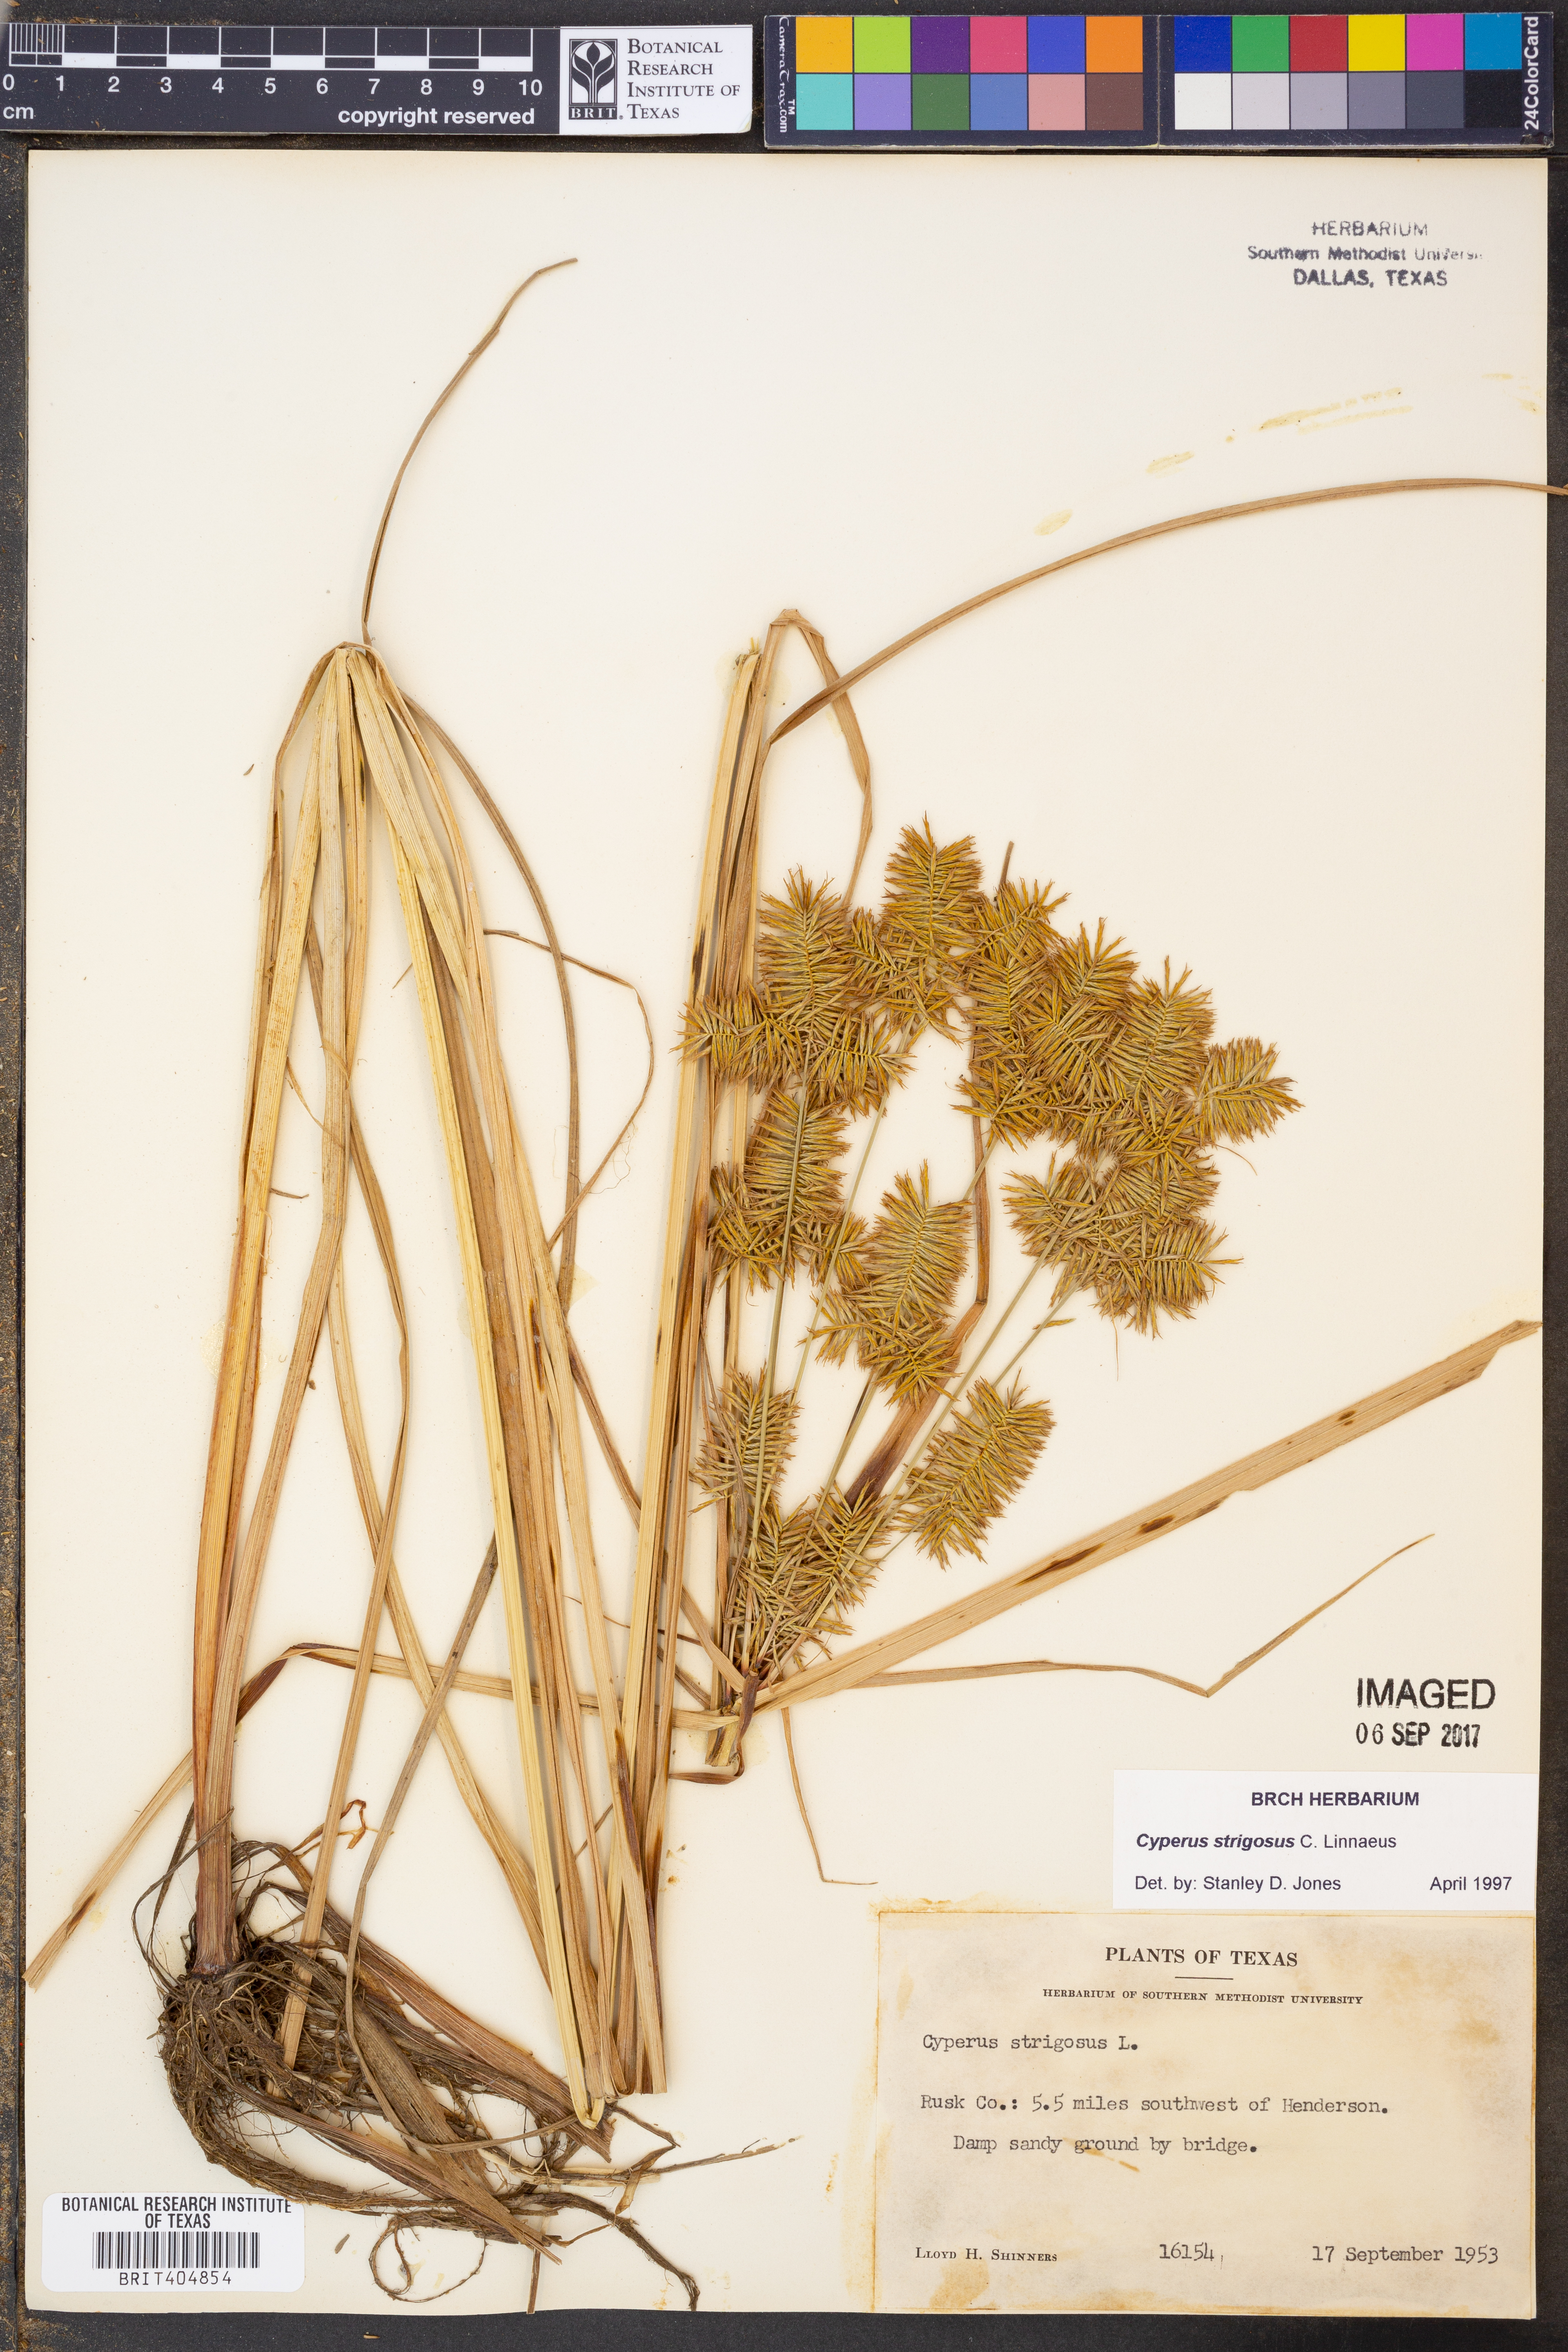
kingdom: Plantae
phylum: Tracheophyta
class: Liliopsida
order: Poales
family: Cyperaceae
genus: Cyperus
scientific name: Cyperus strigosus
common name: False nutsedge
